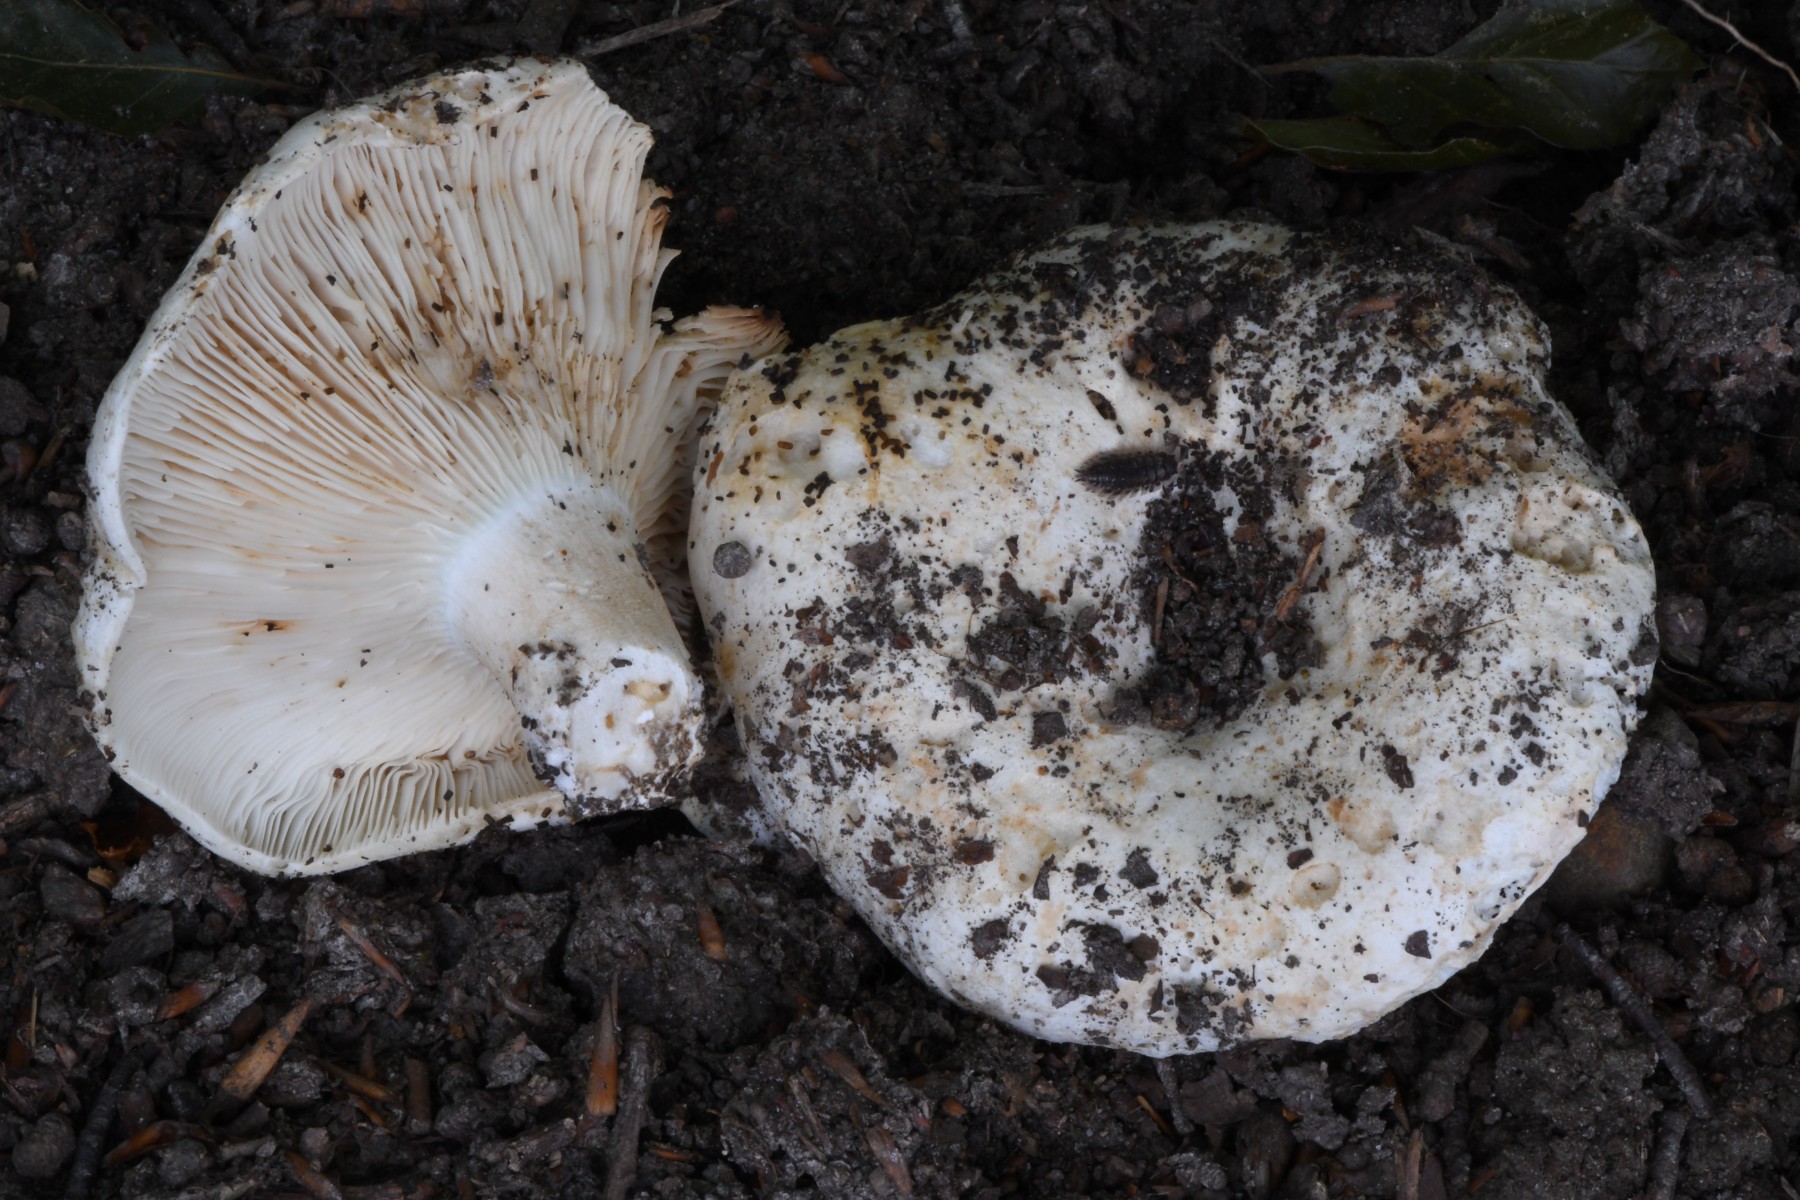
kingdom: Fungi
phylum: Basidiomycota
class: Agaricomycetes
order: Russulales
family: Russulaceae
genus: Russula
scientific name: Russula chloroides
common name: grønhalset tragt-skørhat
